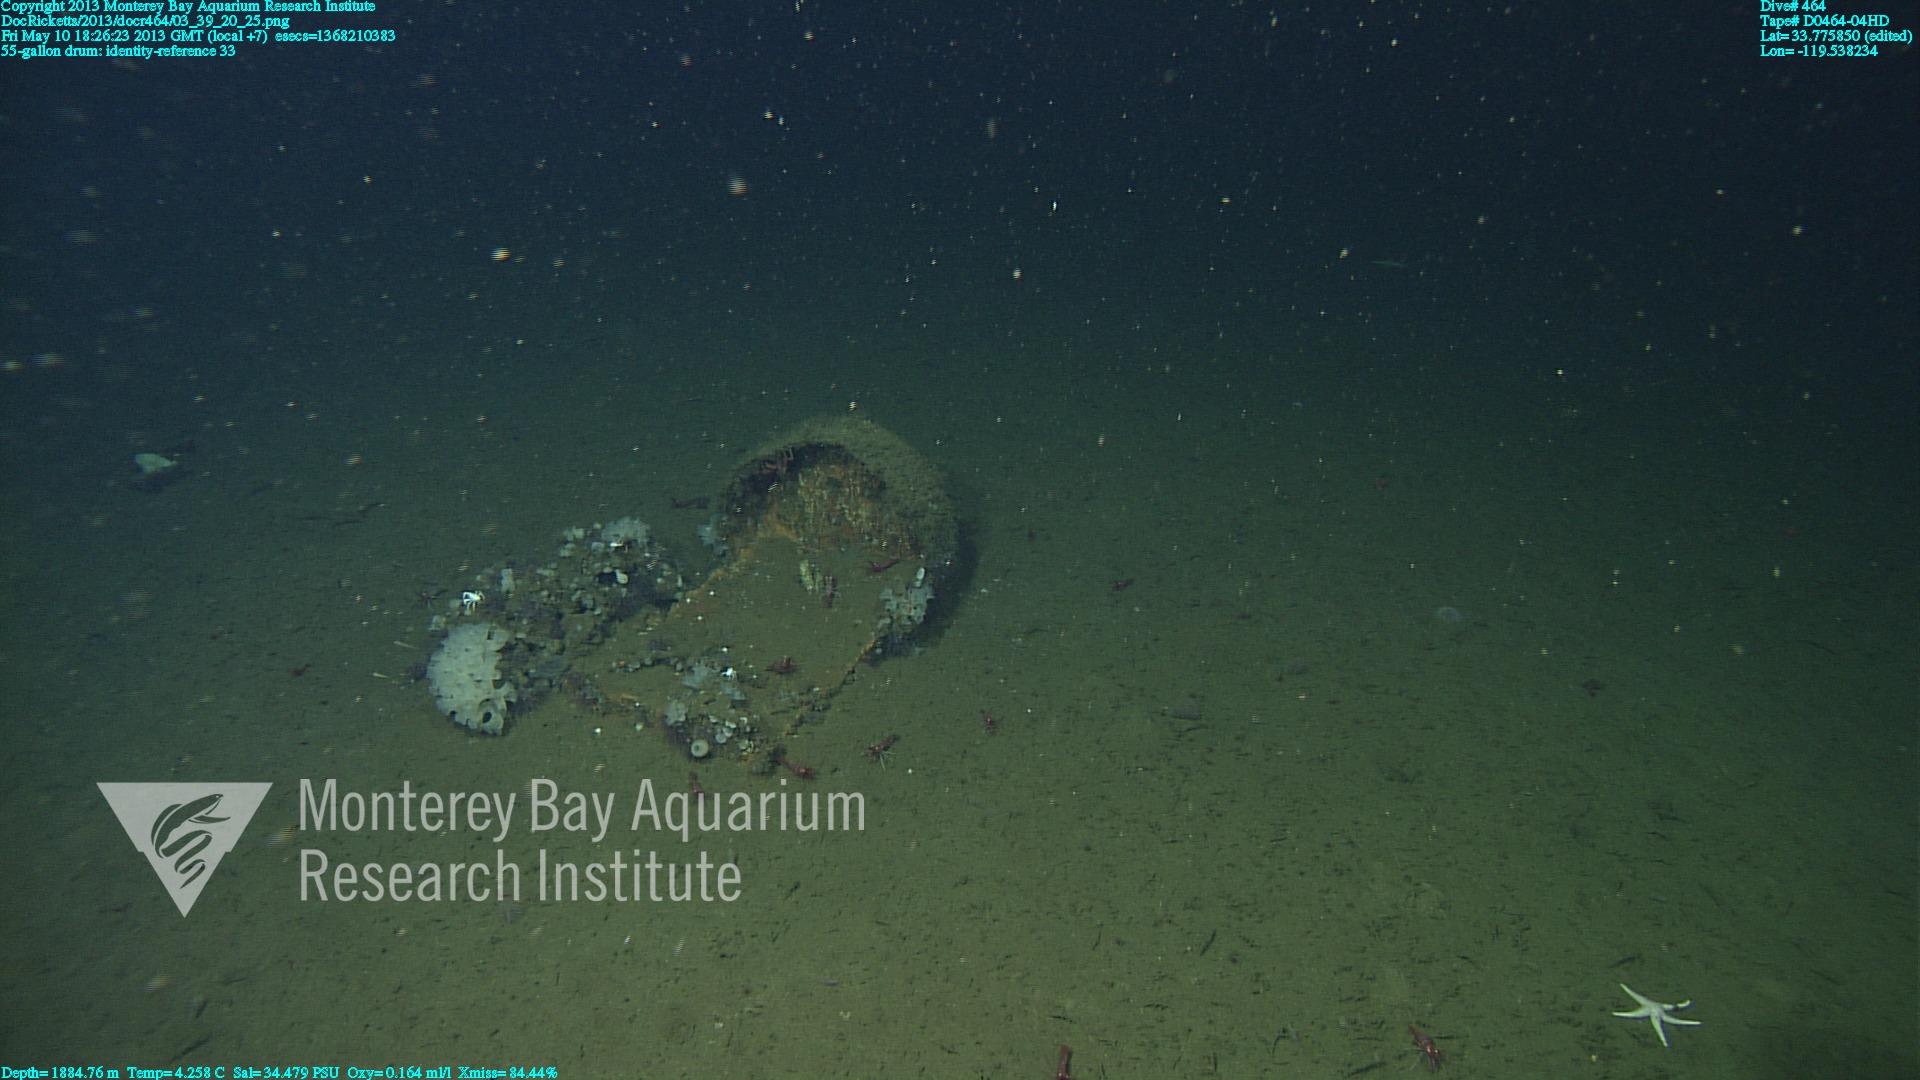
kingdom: Animalia
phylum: Porifera
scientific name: Porifera
